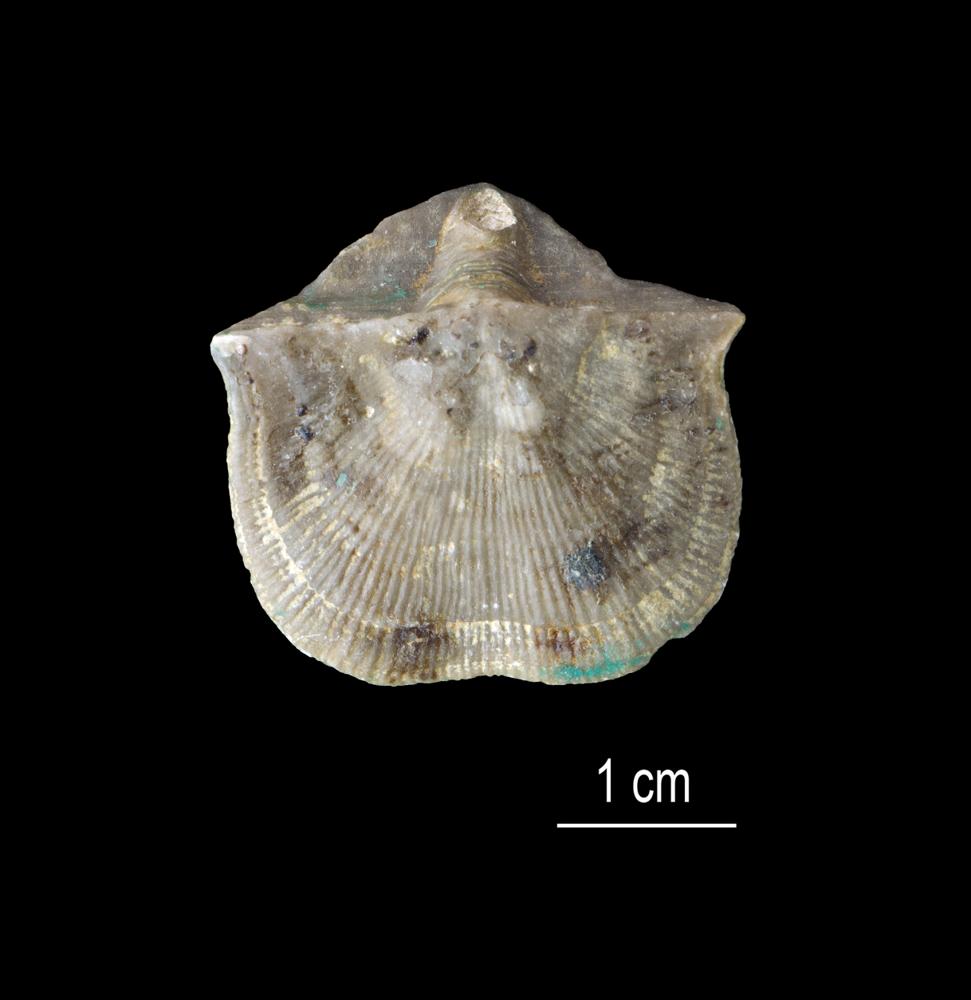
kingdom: Animalia
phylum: Brachiopoda
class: Rhynchonellata
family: Clitambonitidae
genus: Clitambonites
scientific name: Clitambonites squamatus
